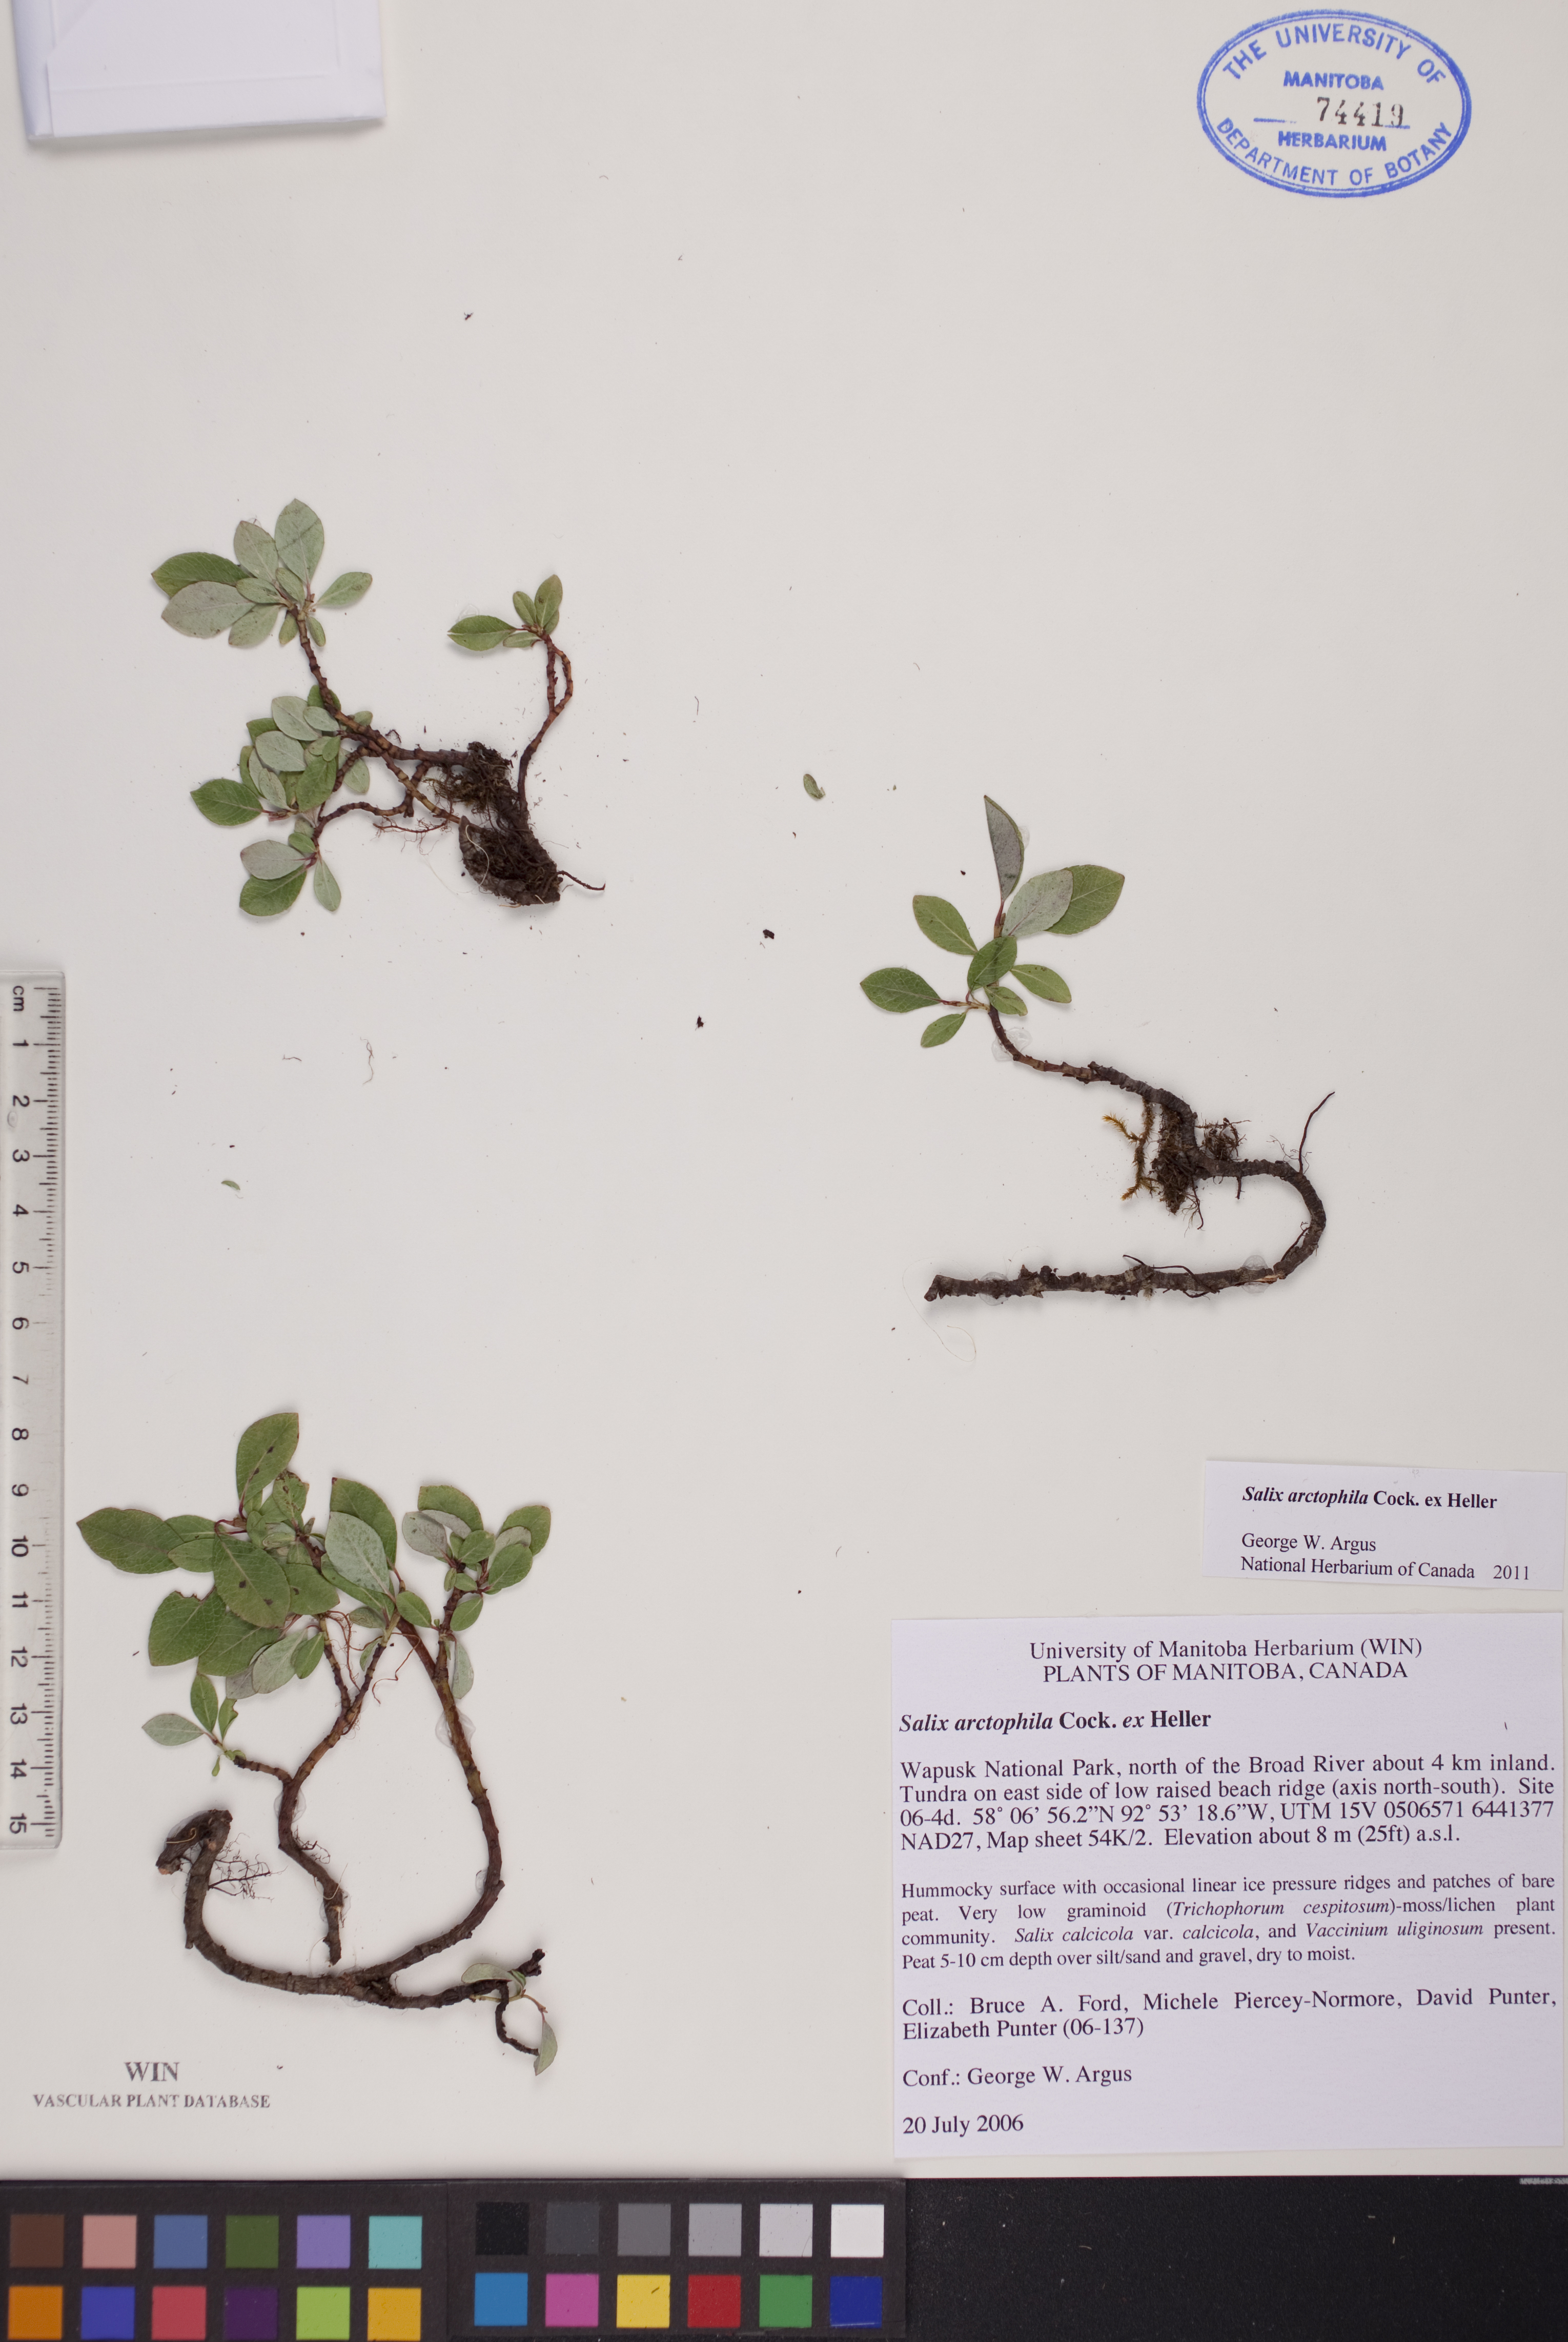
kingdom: Plantae
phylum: Tracheophyta
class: Magnoliopsida
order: Malpighiales
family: Salicaceae
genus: Salix
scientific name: Salix arctophila
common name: Greenland willow
